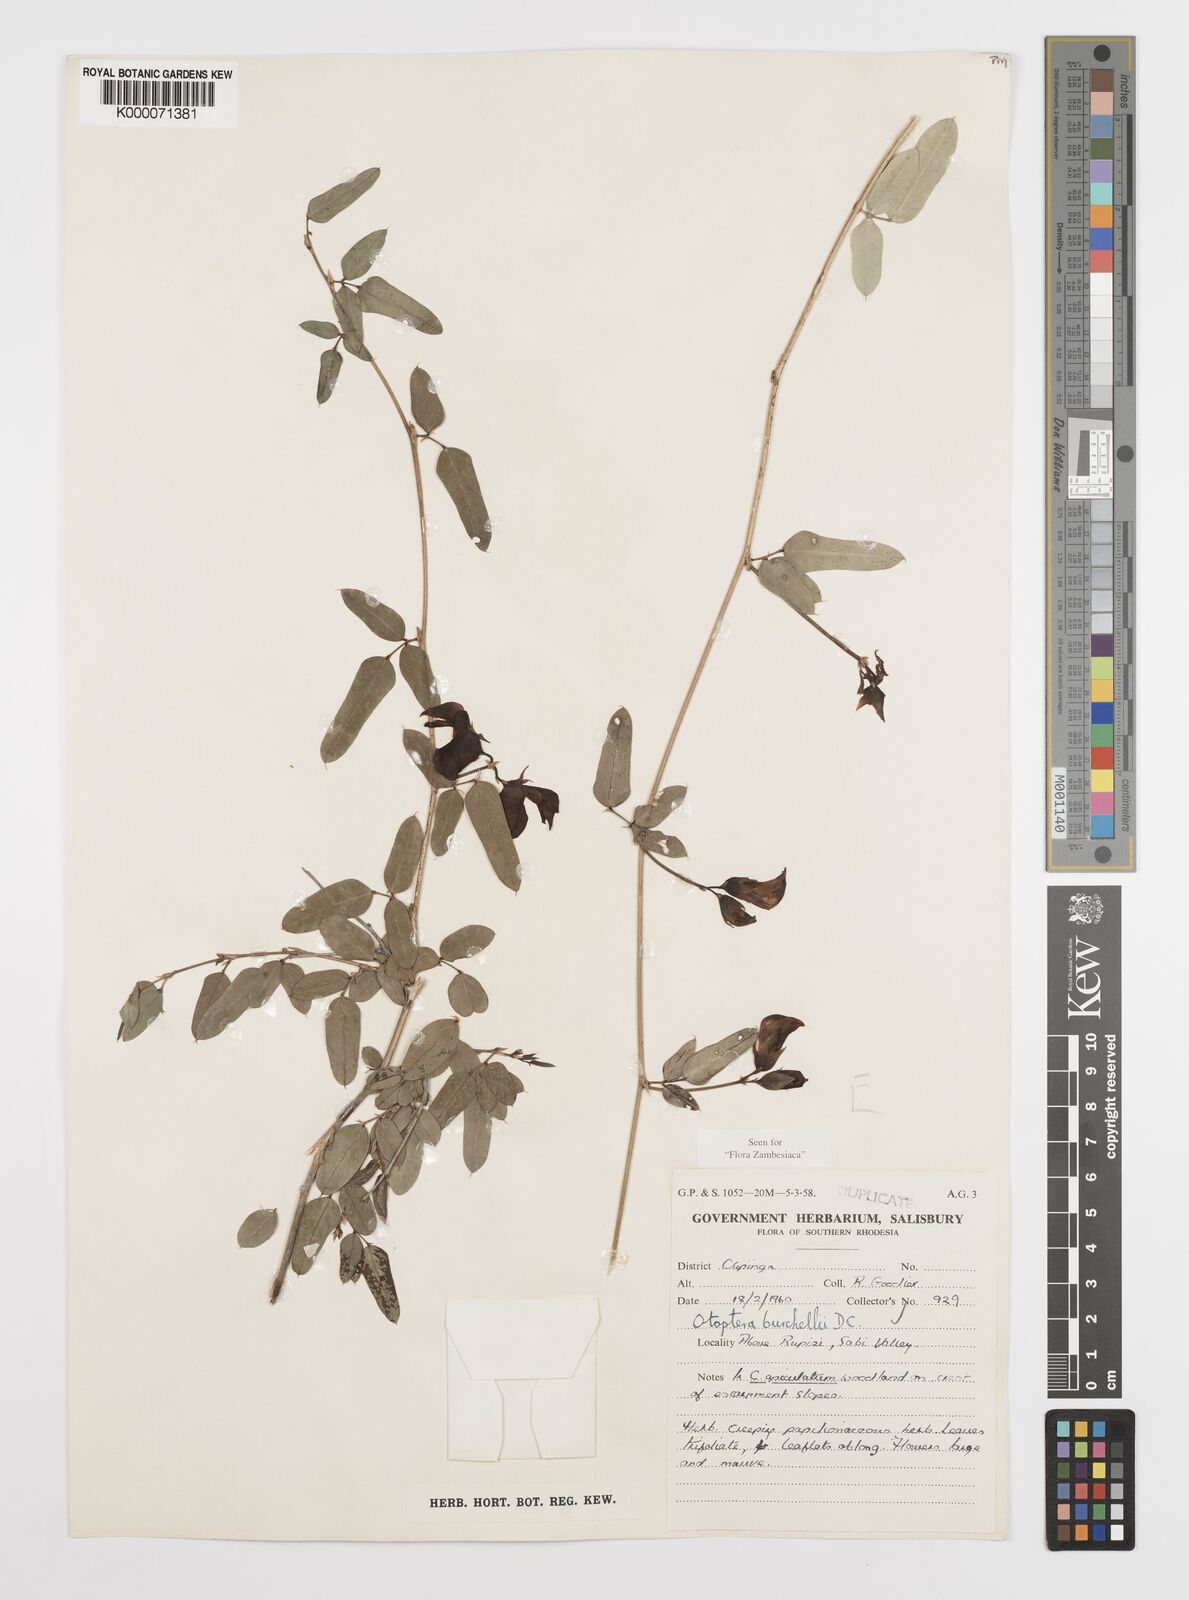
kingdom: Plantae
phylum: Tracheophyta
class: Magnoliopsida
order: Fabales
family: Fabaceae
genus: Otoptera
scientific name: Otoptera burchellii
